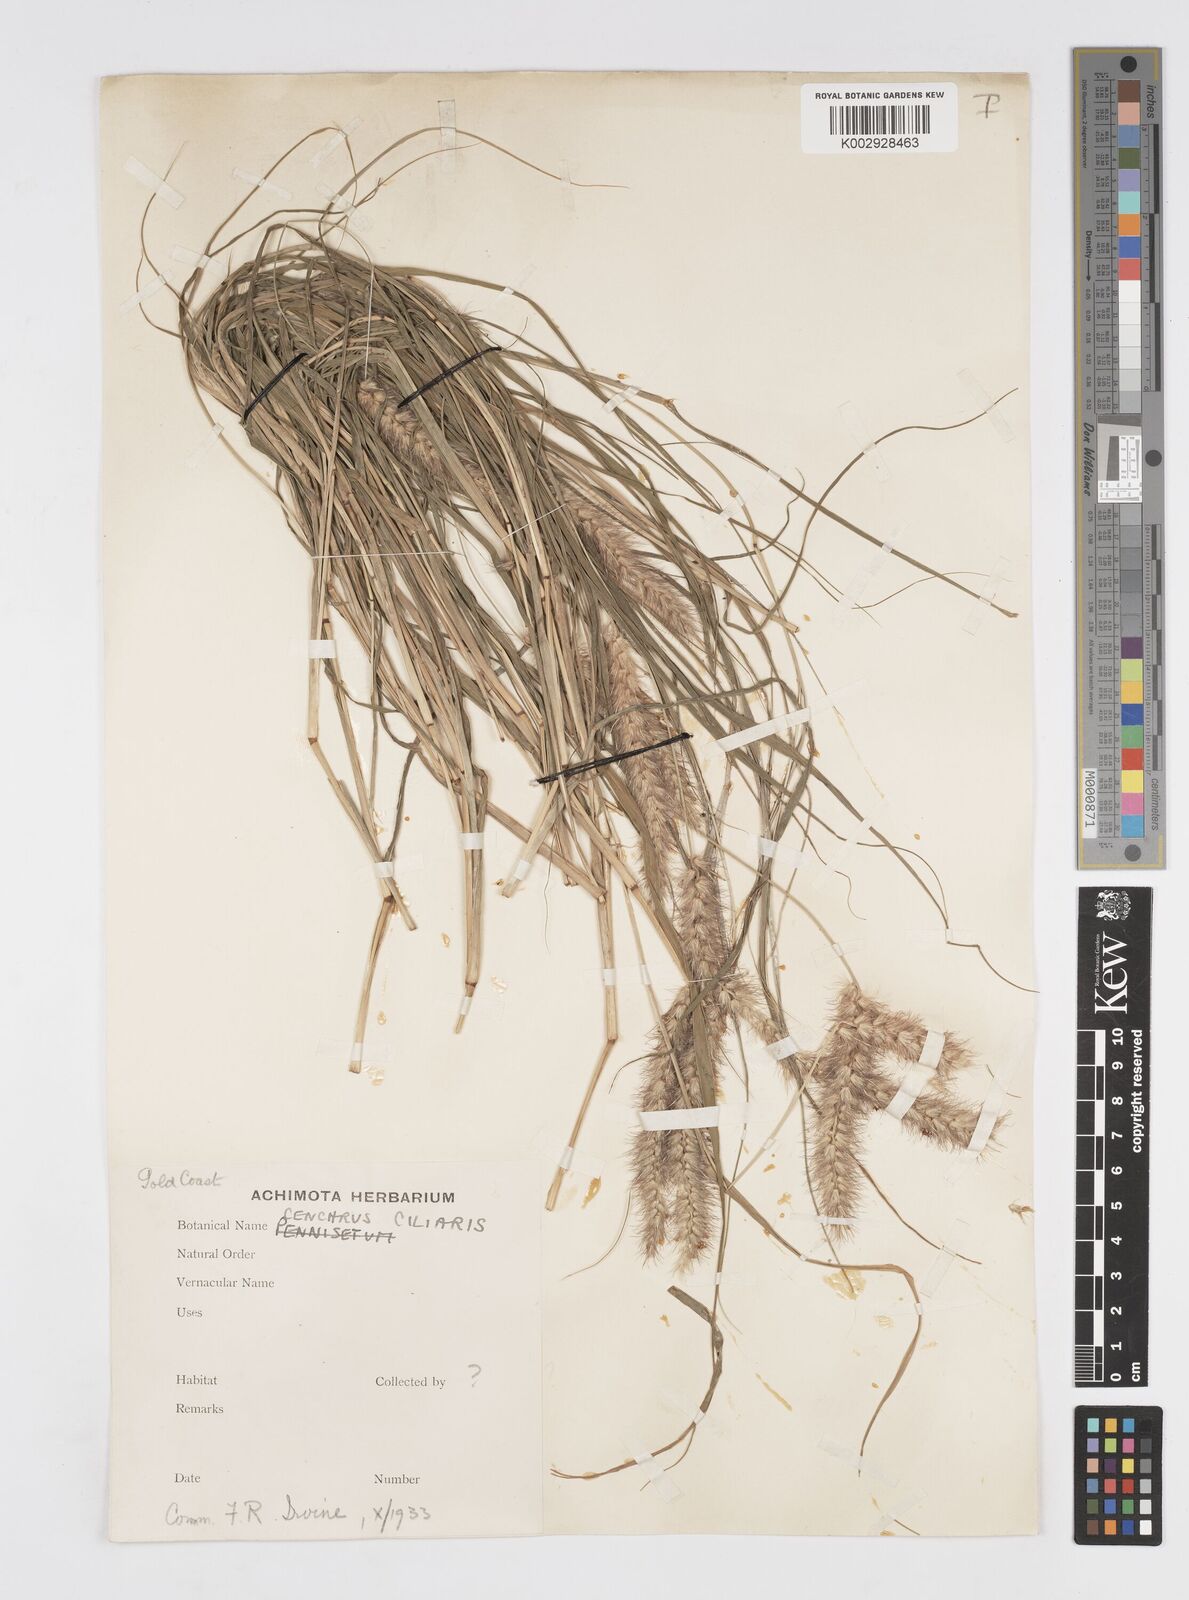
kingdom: Plantae
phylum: Tracheophyta
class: Liliopsida
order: Poales
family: Poaceae
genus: Cenchrus
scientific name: Cenchrus ciliaris
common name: Buffelgrass
